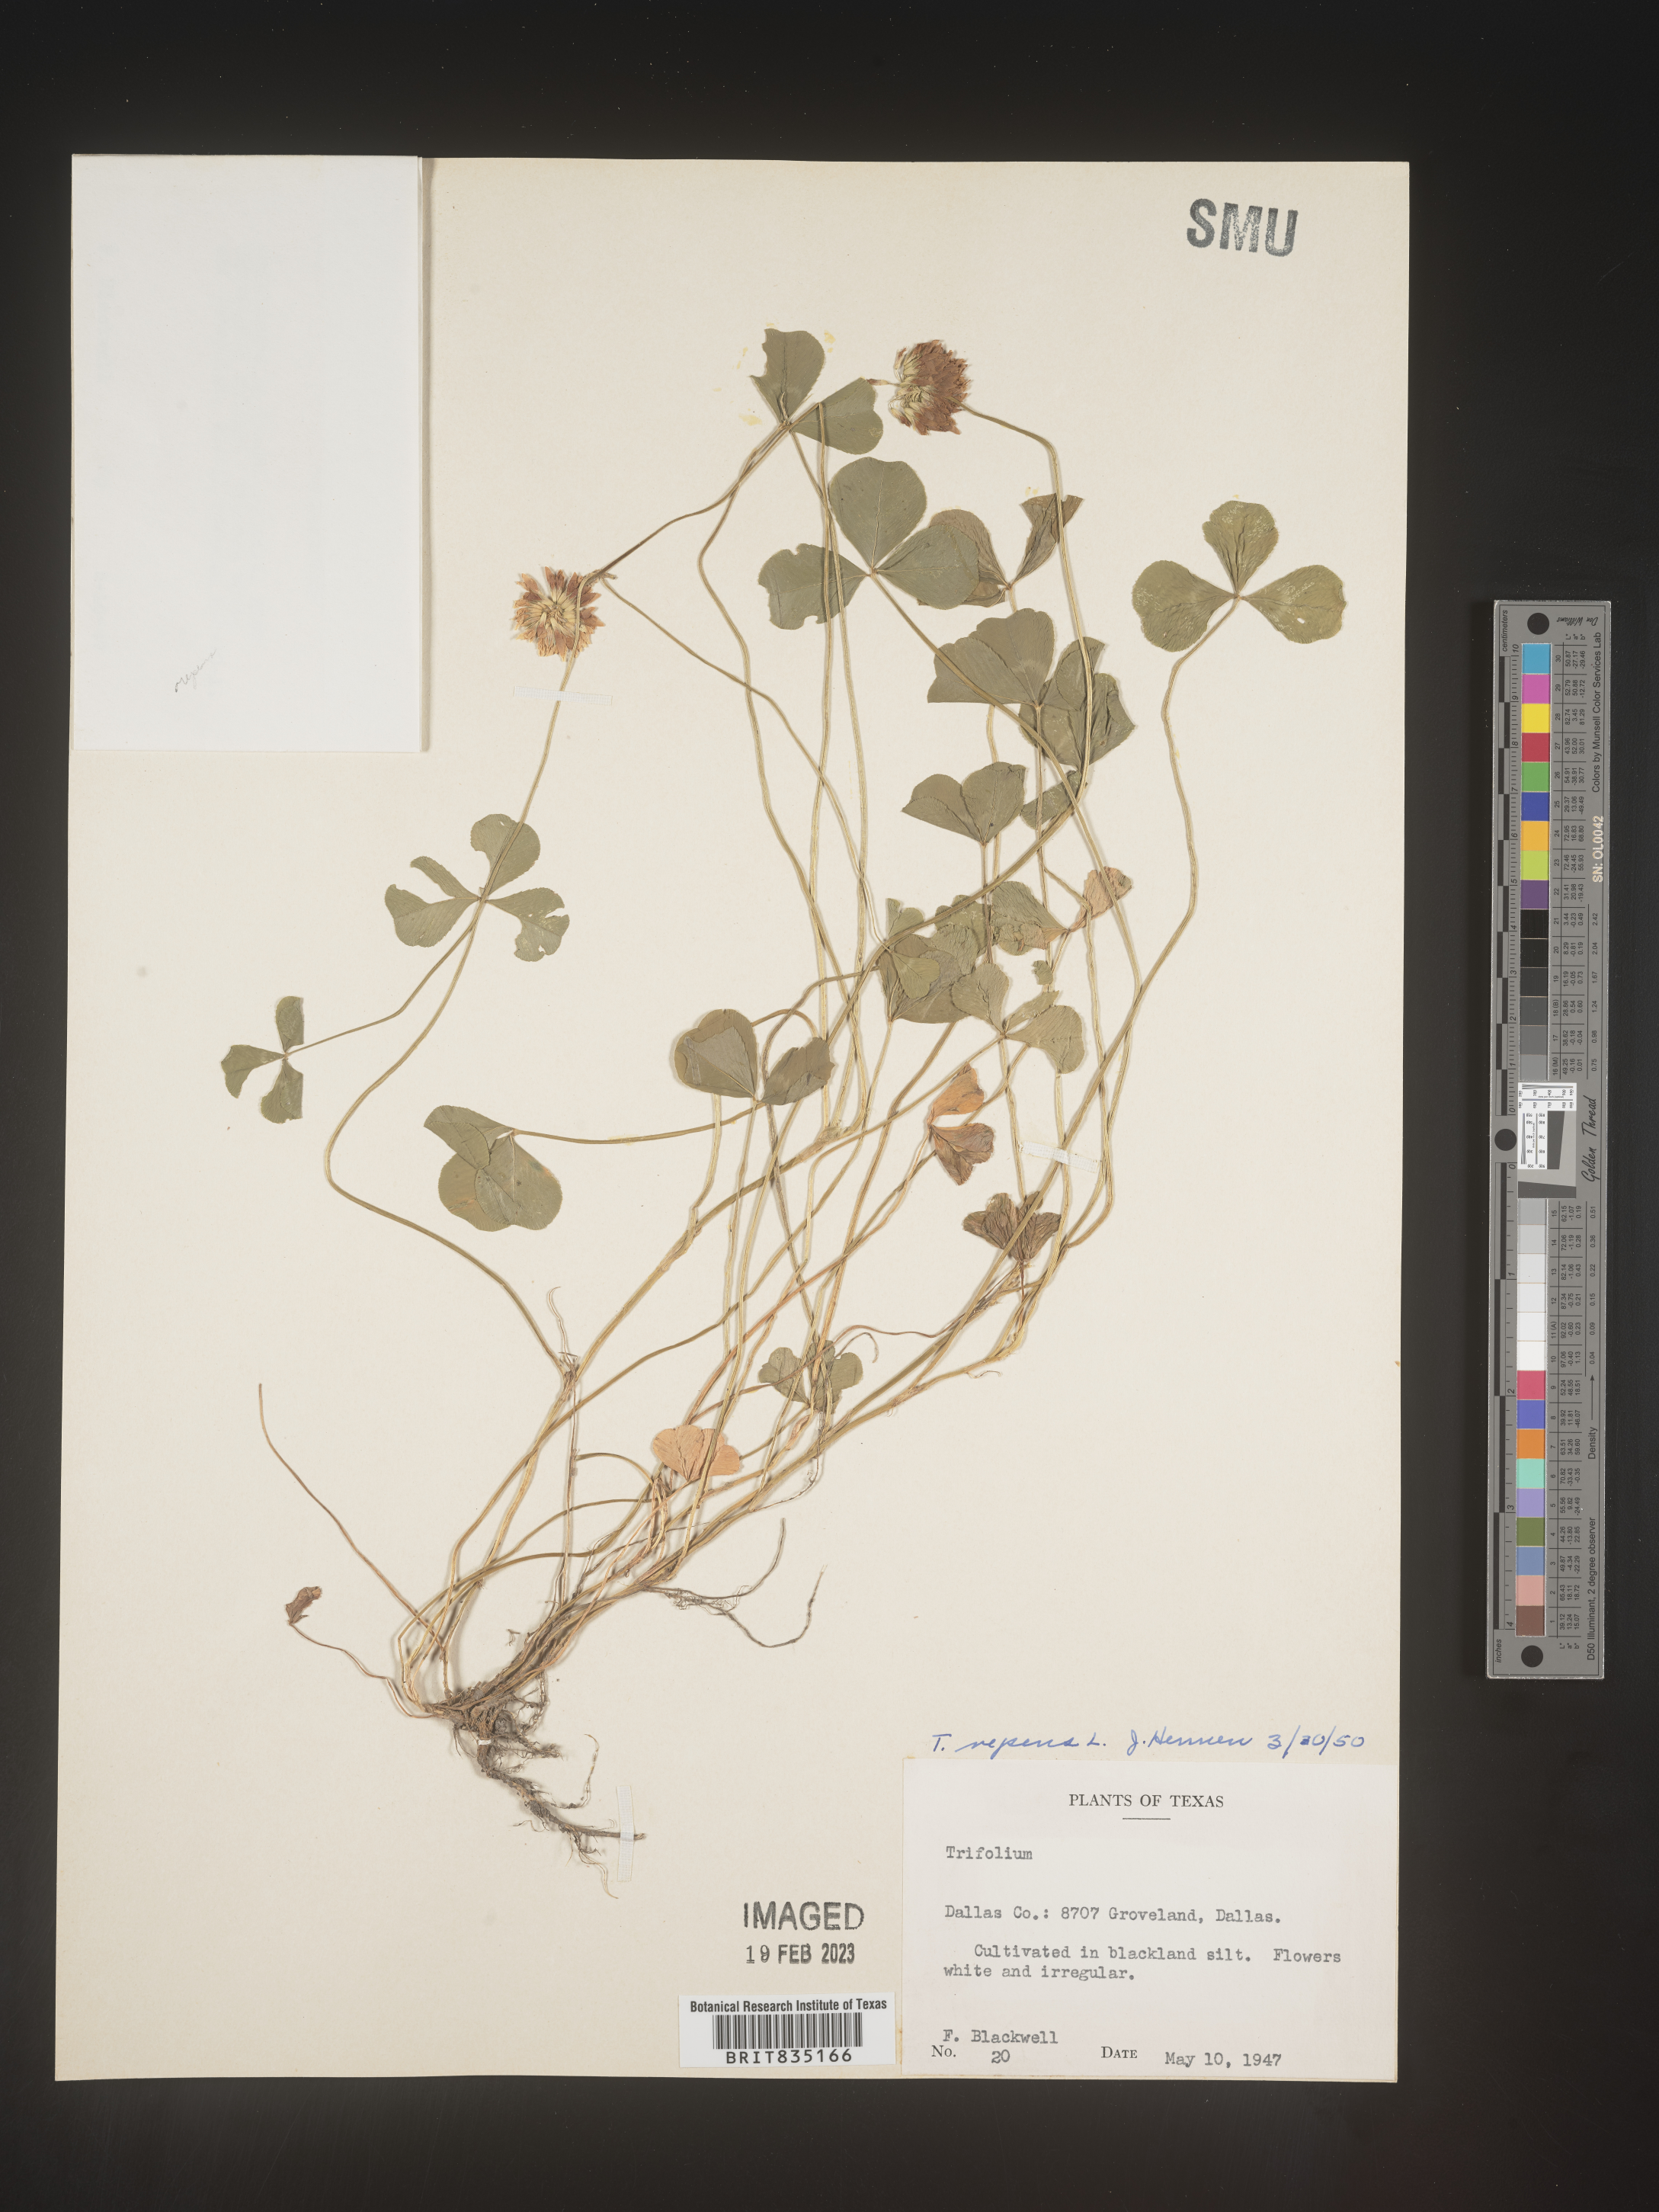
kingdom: Plantae
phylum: Tracheophyta
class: Magnoliopsida
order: Fabales
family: Fabaceae
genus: Trigonella
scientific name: Trigonella
